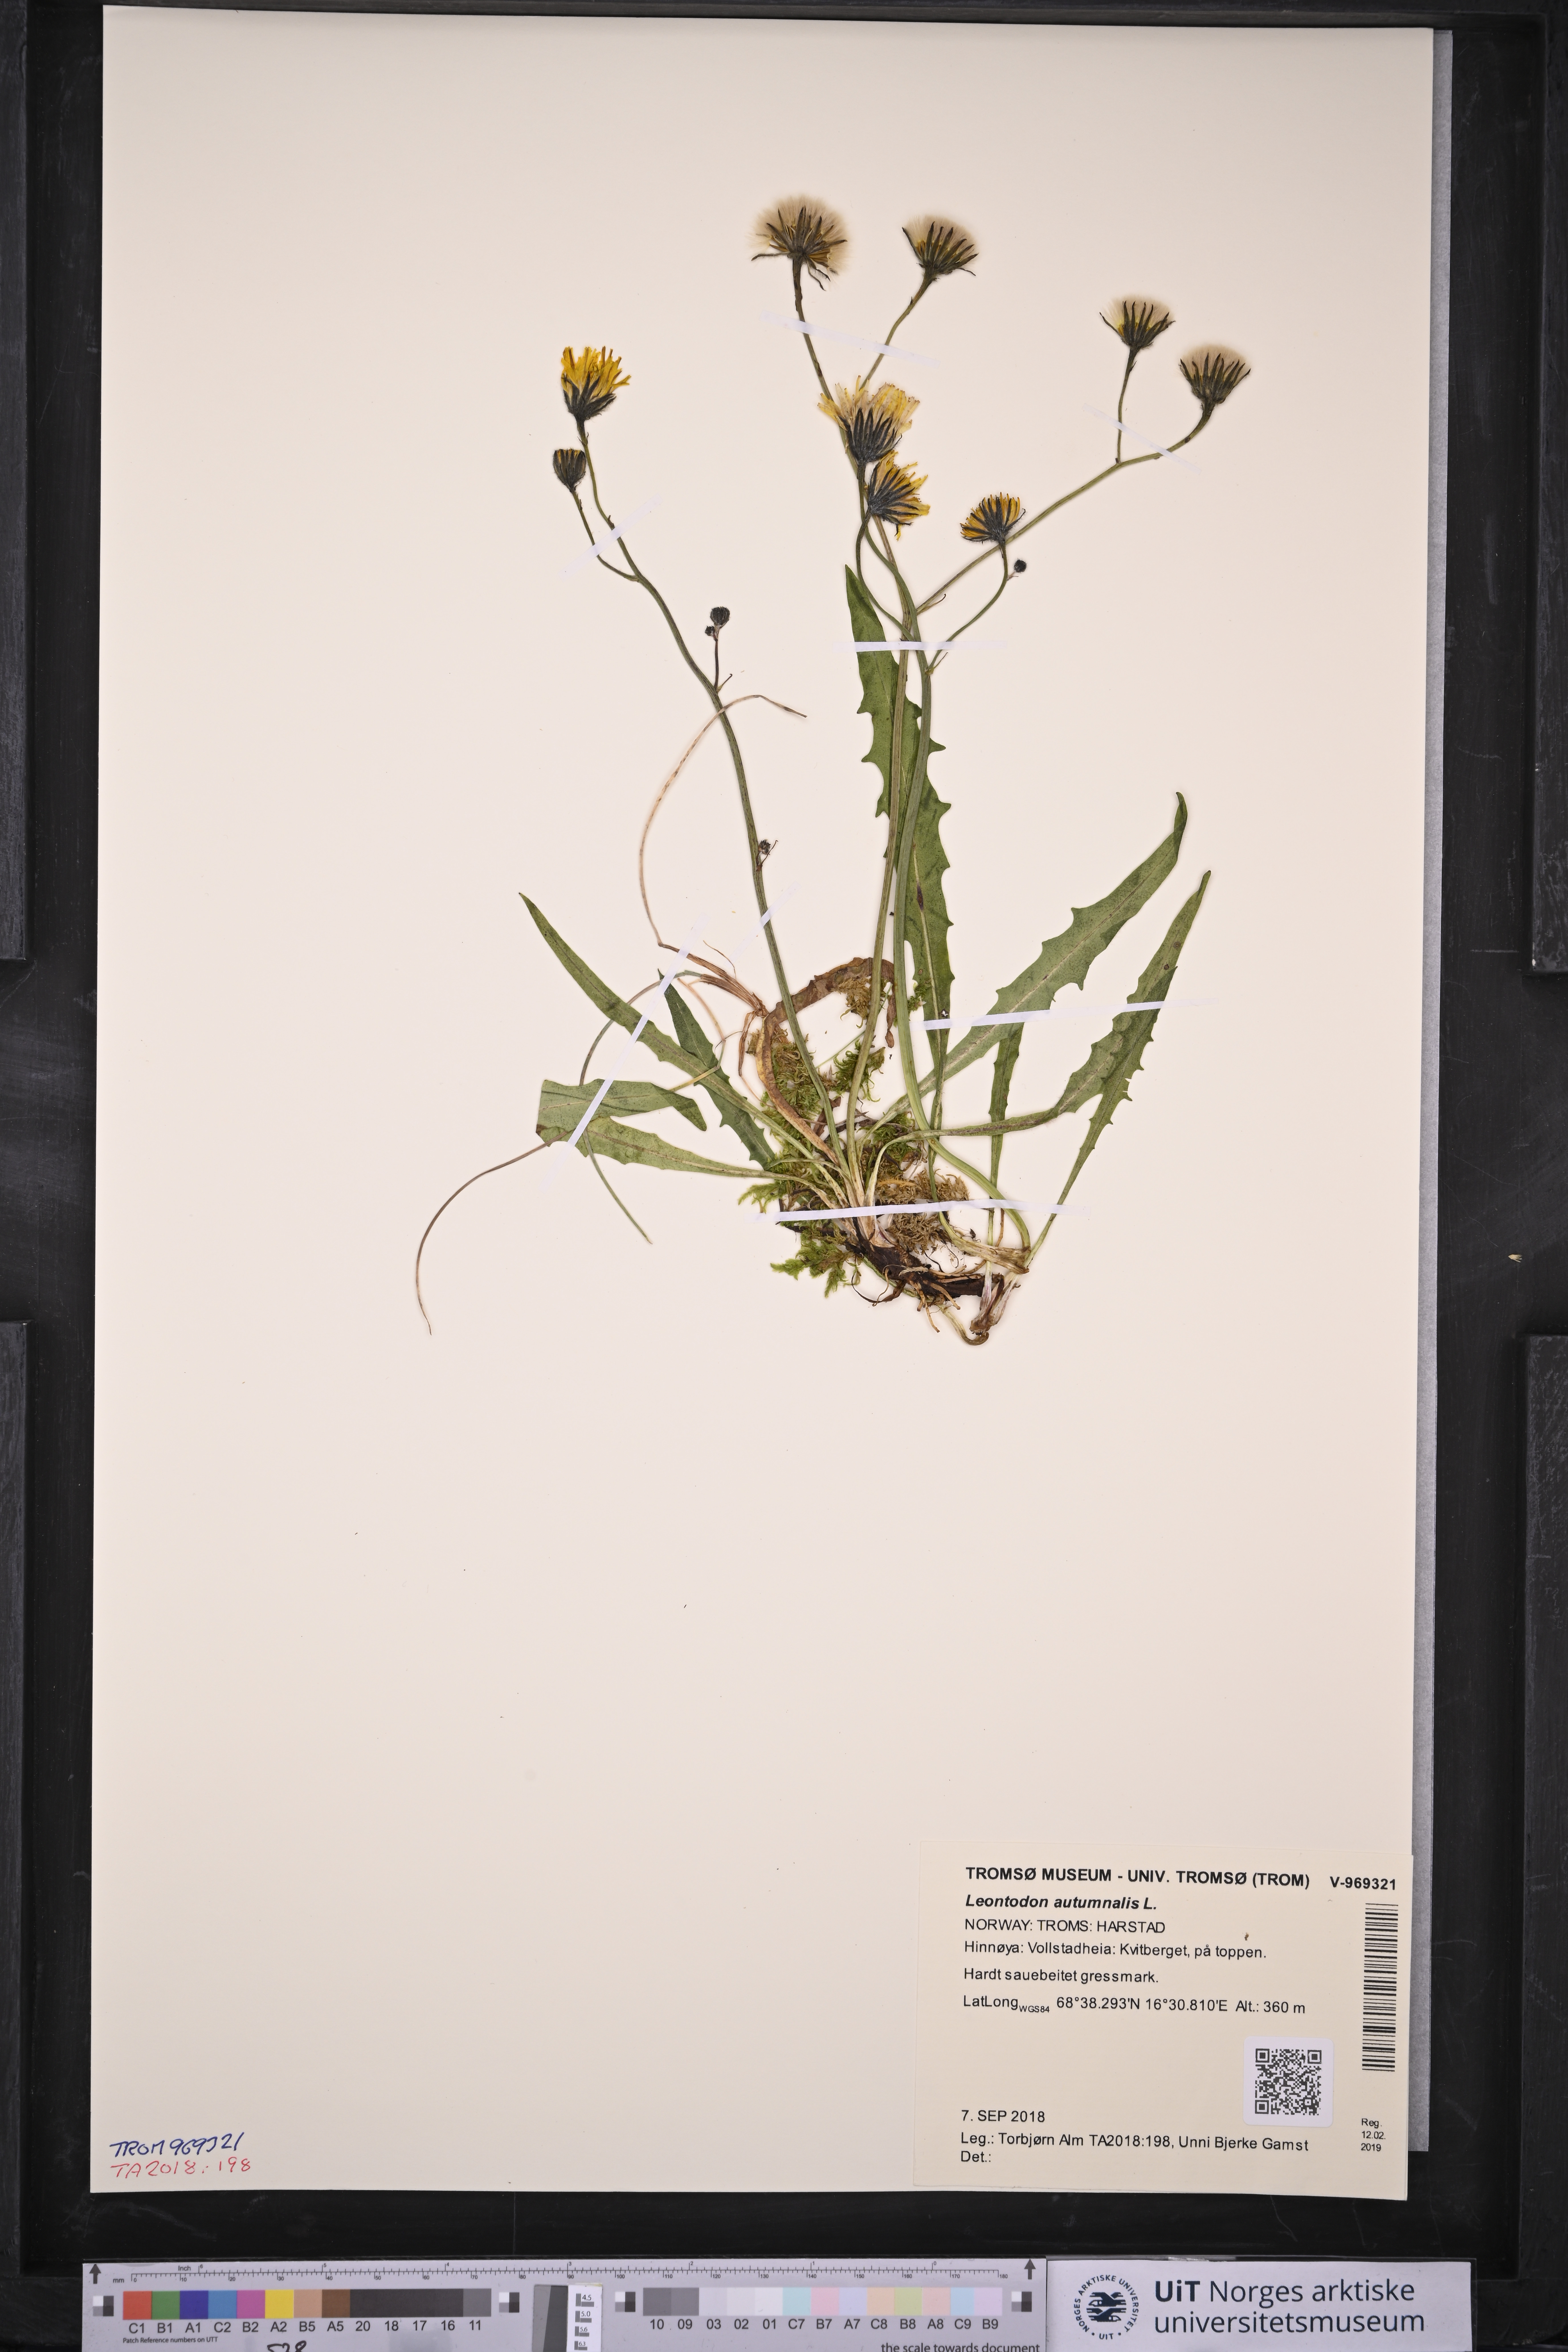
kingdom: Plantae
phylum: Tracheophyta
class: Magnoliopsida
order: Asterales
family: Asteraceae
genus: Scorzoneroides
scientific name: Scorzoneroides autumnalis
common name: Autumn hawkbit
